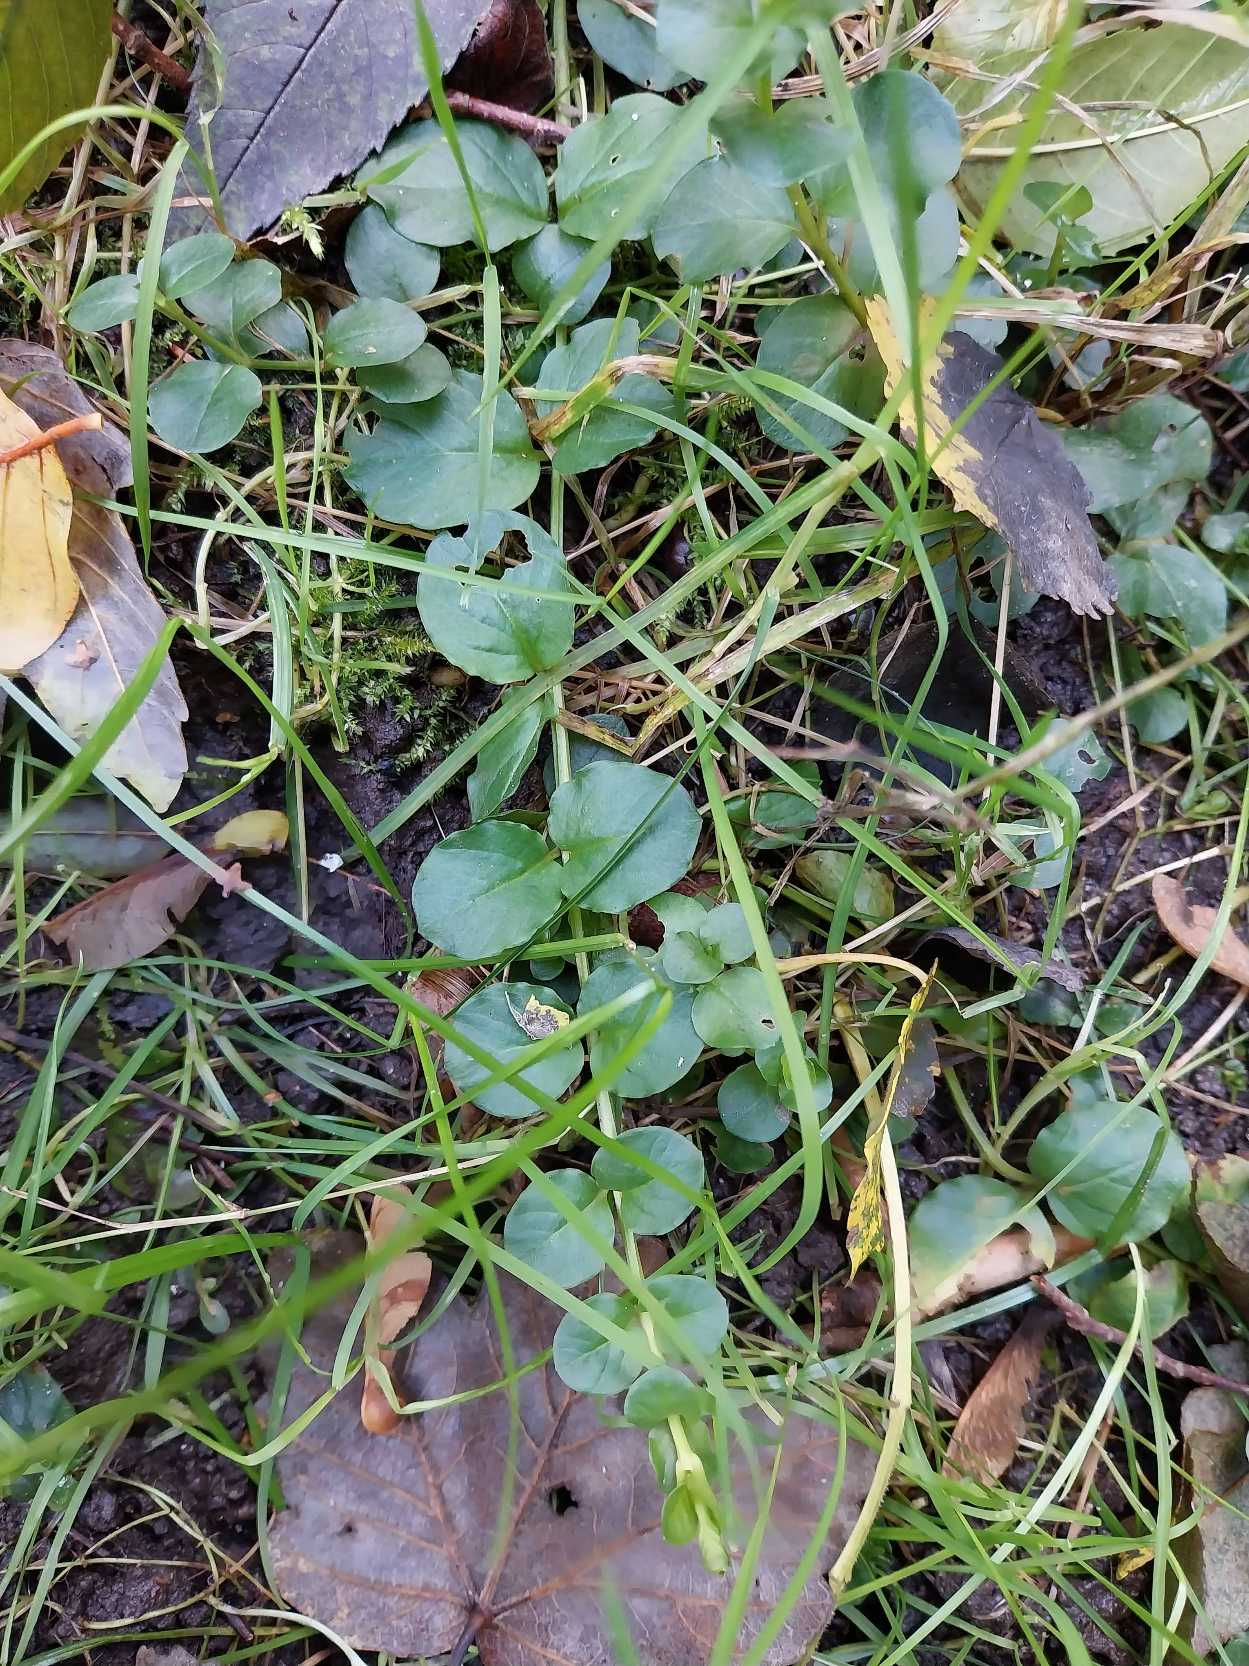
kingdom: Plantae
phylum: Tracheophyta
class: Magnoliopsida
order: Ericales
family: Primulaceae
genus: Lysimachia
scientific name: Lysimachia nummularia
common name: Pengebladet fredløs
